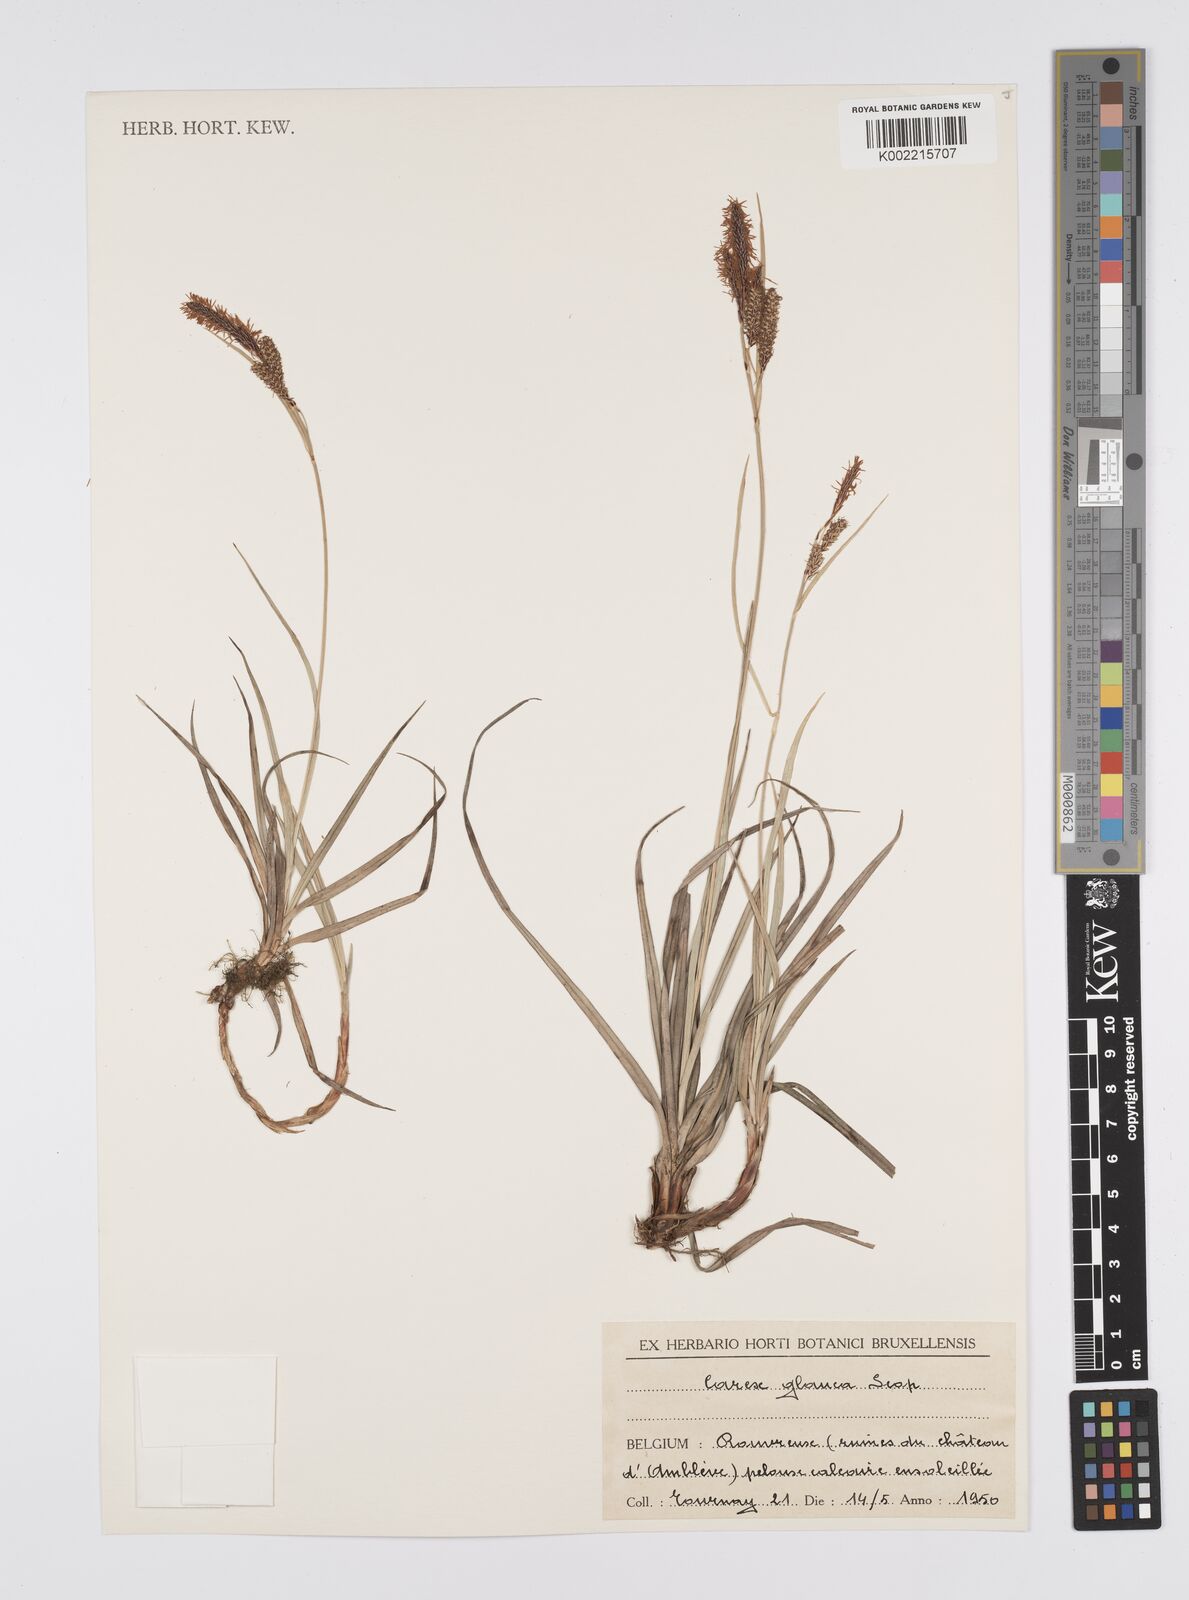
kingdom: Plantae
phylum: Tracheophyta
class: Liliopsida
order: Poales
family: Cyperaceae
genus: Carex
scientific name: Carex flacca
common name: Glaucous sedge
